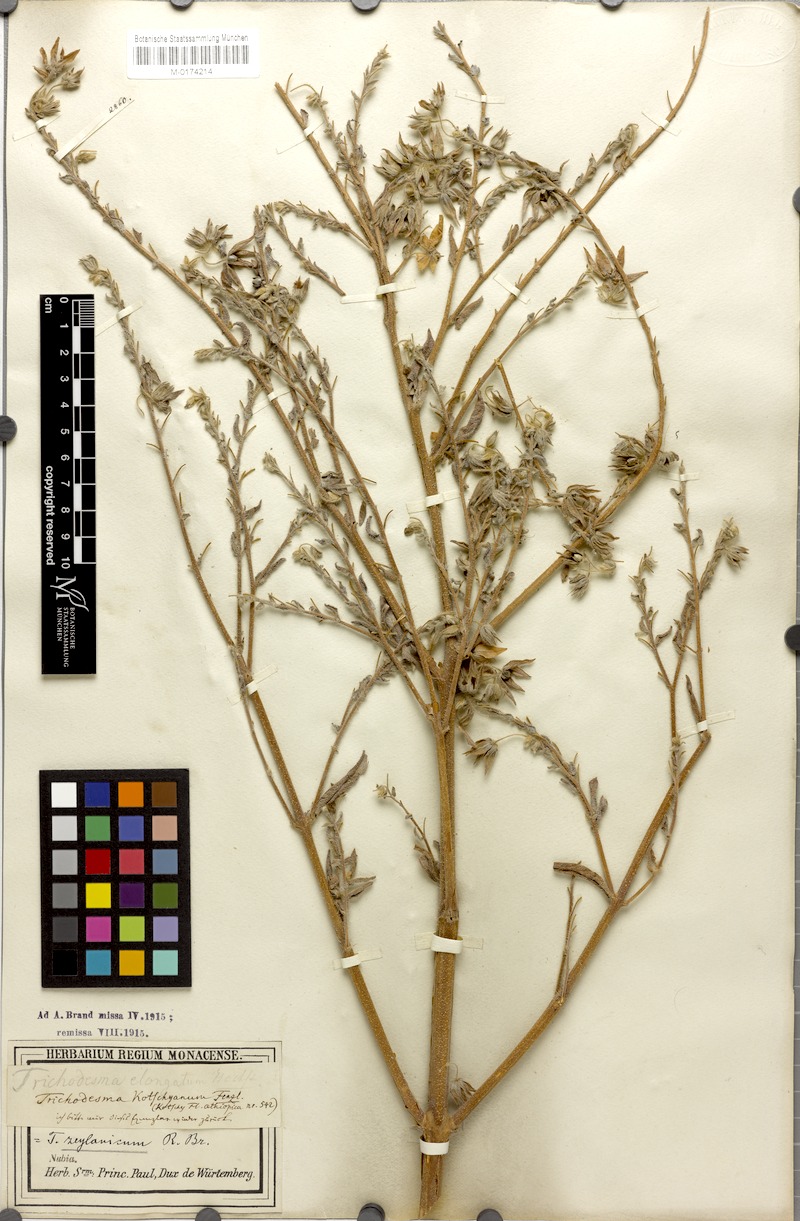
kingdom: Plantae
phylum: Tracheophyta
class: Magnoliopsida
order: Boraginales
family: Boraginaceae
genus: Trichodesma
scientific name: Trichodesma zeylanicum
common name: Camelbush
